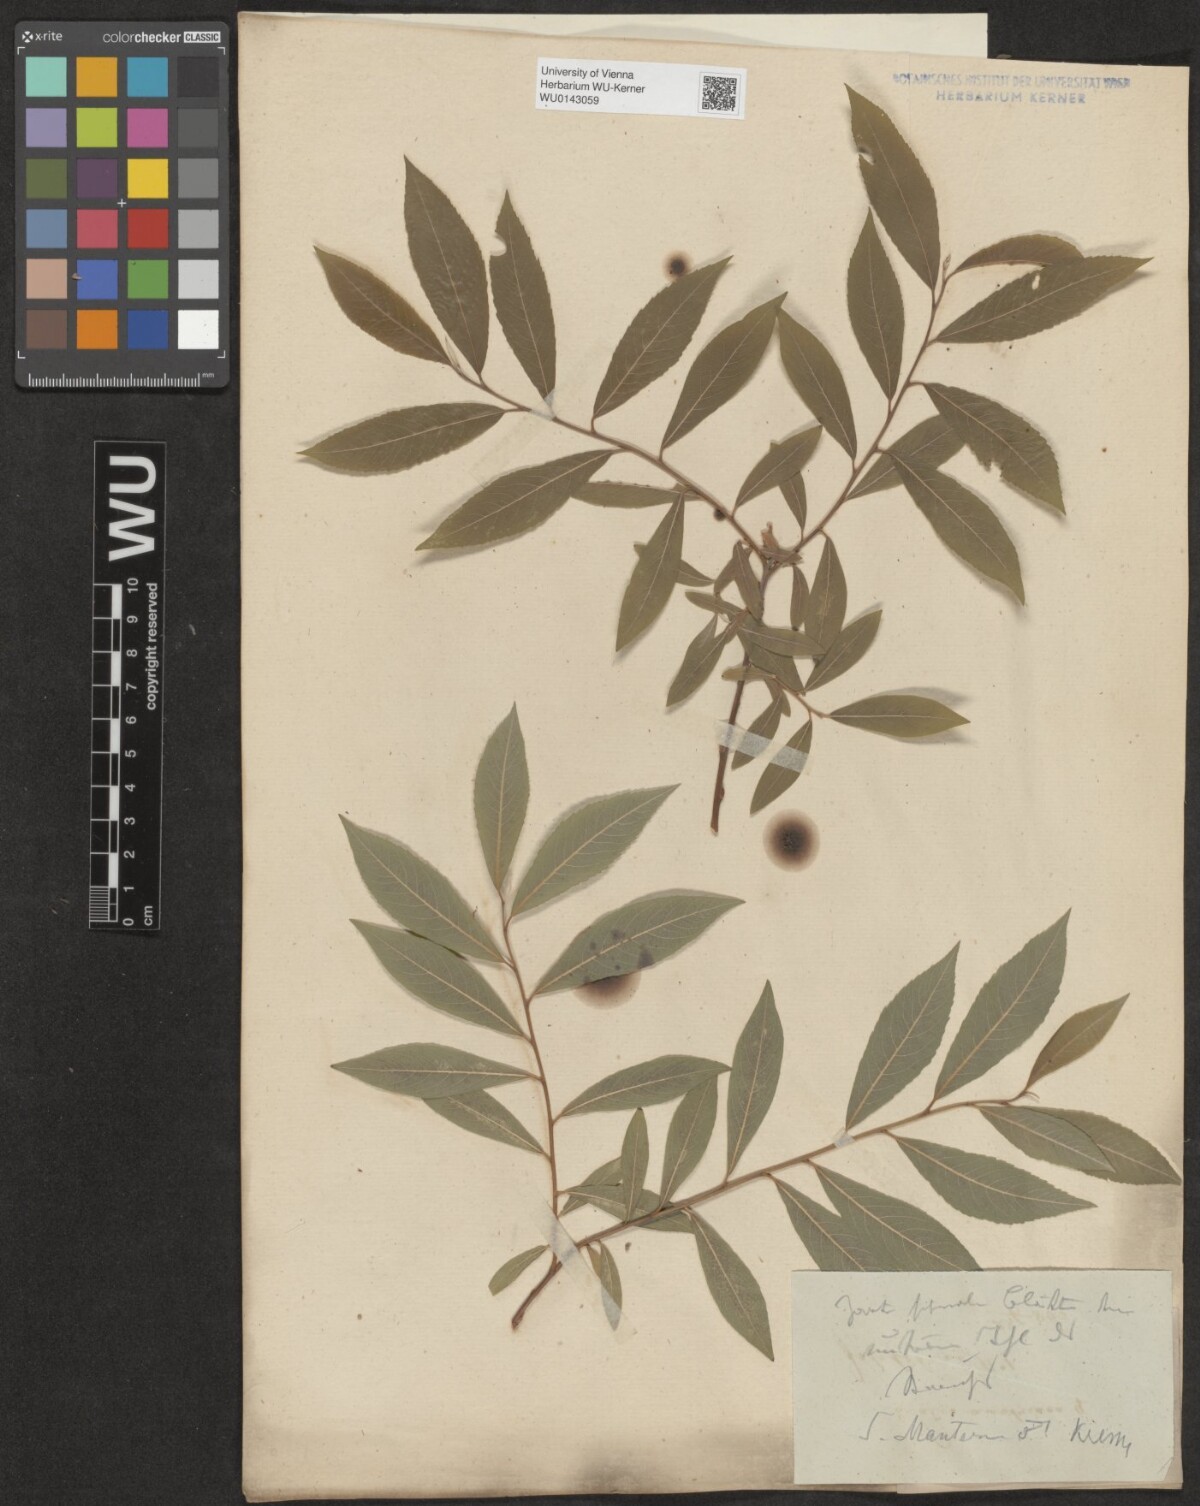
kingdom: Plantae
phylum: Tracheophyta
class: Magnoliopsida
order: Malpighiales
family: Salicaceae
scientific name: Salicaceae
